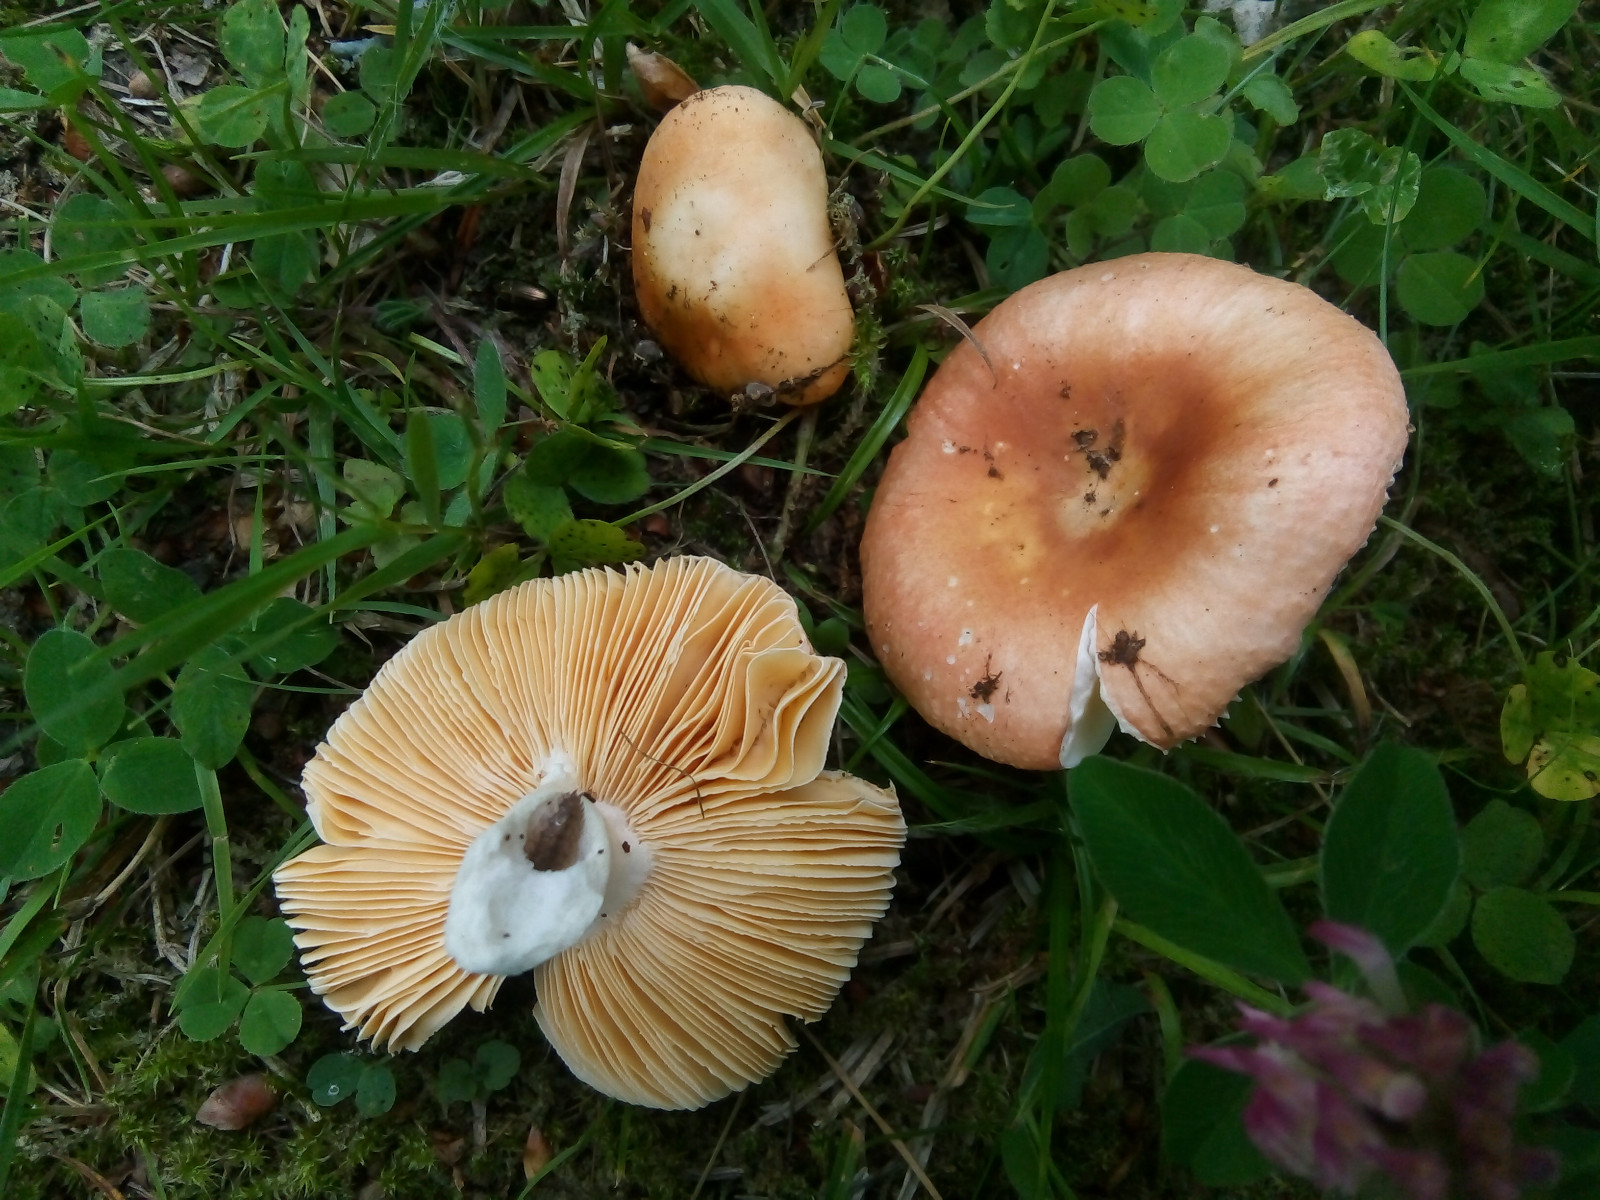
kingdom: Fungi
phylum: Basidiomycota
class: Agaricomycetes
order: Russulales
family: Russulaceae
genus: Russula
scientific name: Russula risigallina
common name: abrikos-skørhat
